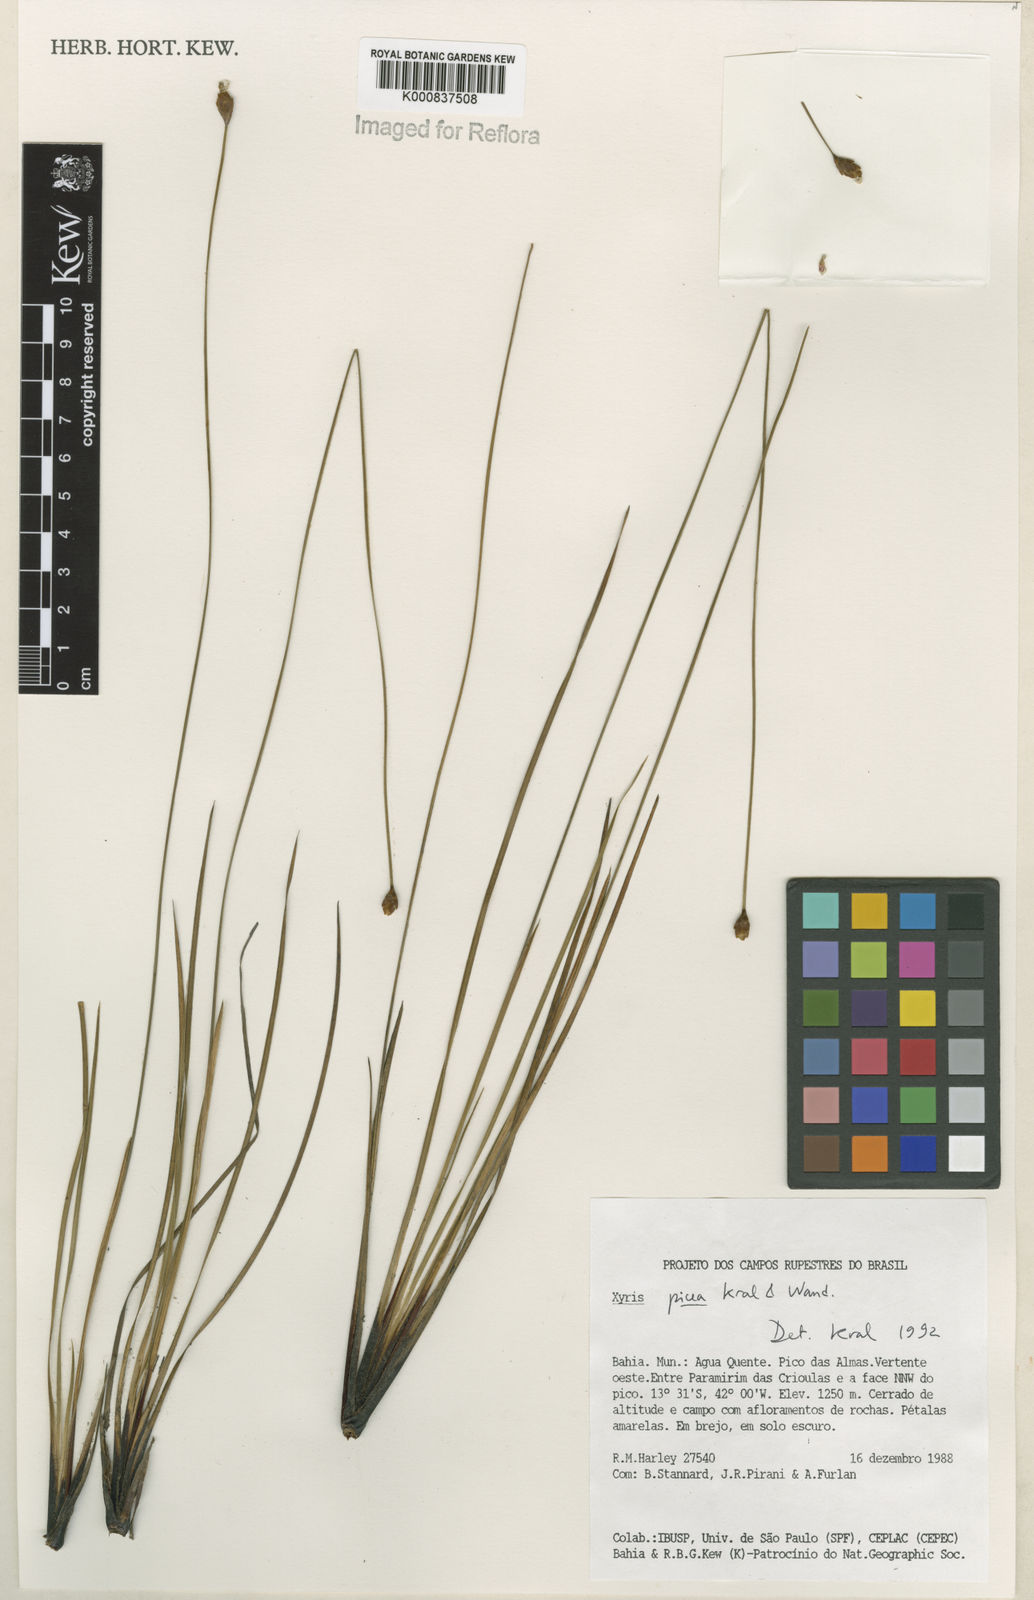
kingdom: Plantae
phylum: Tracheophyta
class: Liliopsida
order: Poales
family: Xyridaceae
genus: Xyris
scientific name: Xyris picea
